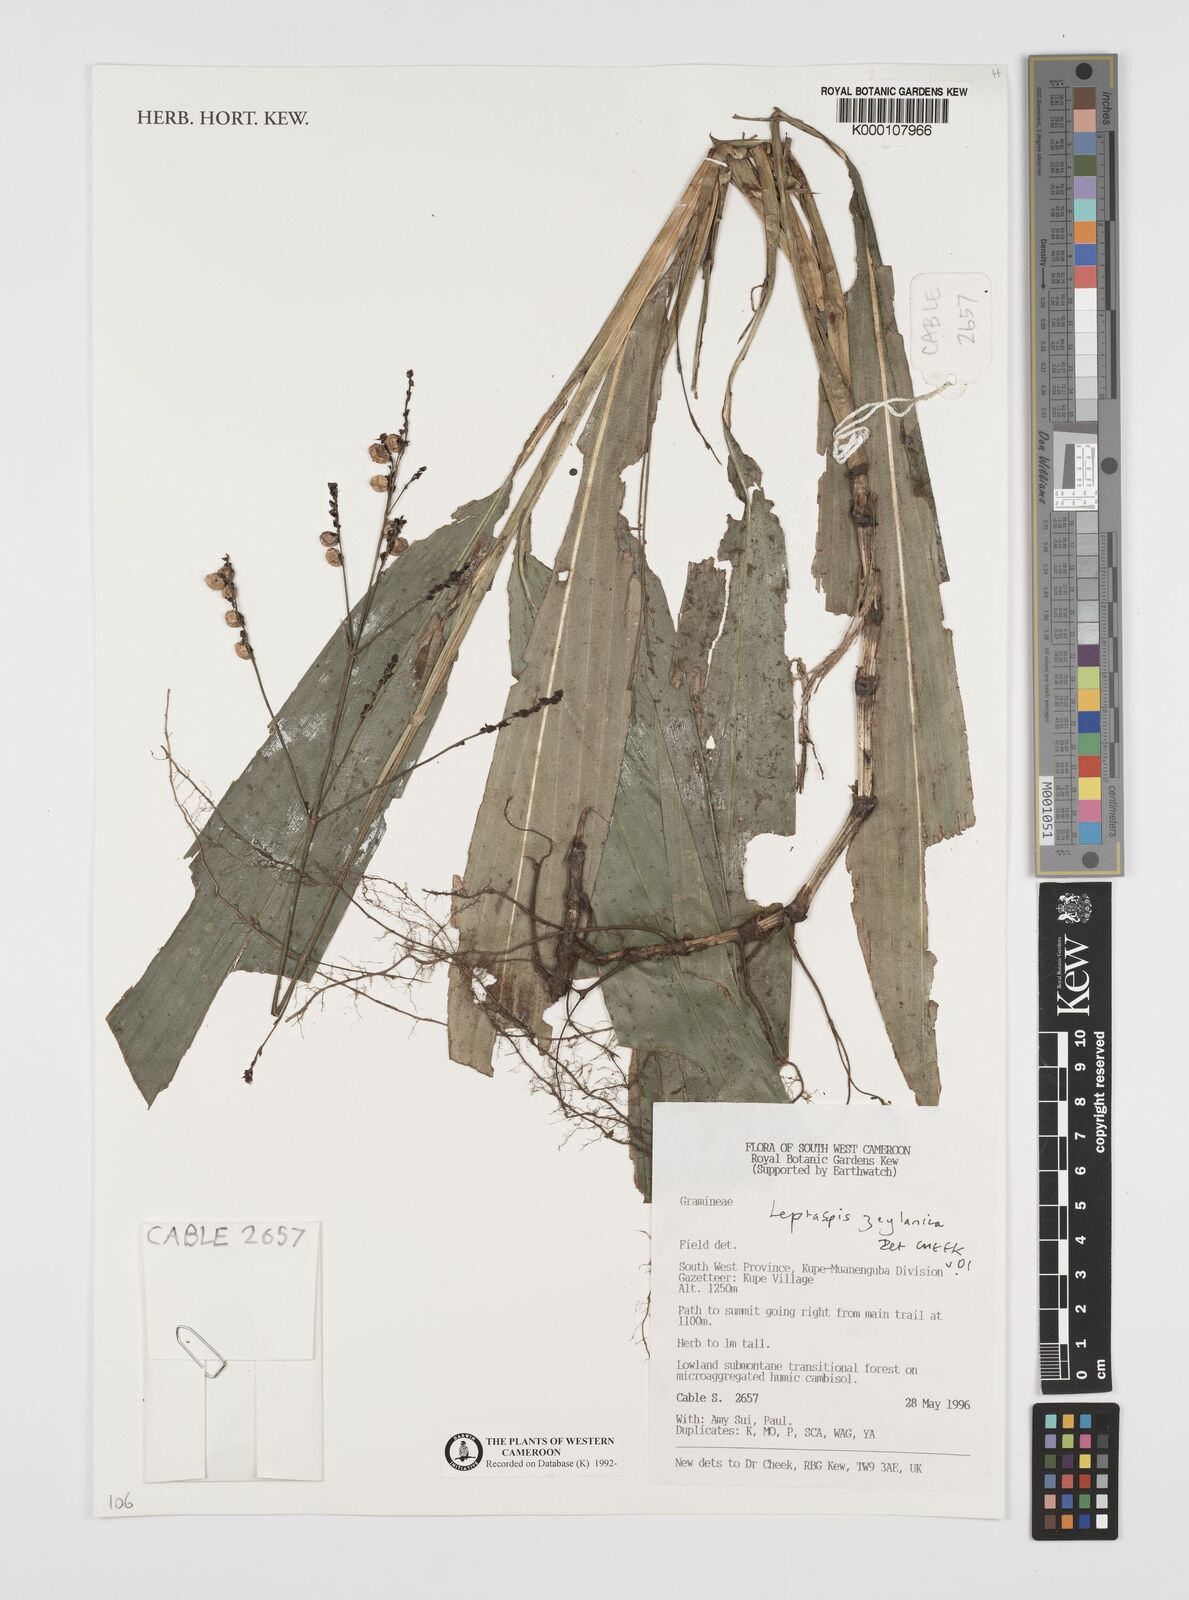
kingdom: Plantae
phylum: Tracheophyta
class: Liliopsida
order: Poales
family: Poaceae
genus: Leptaspis
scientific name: Leptaspis zeylanica
